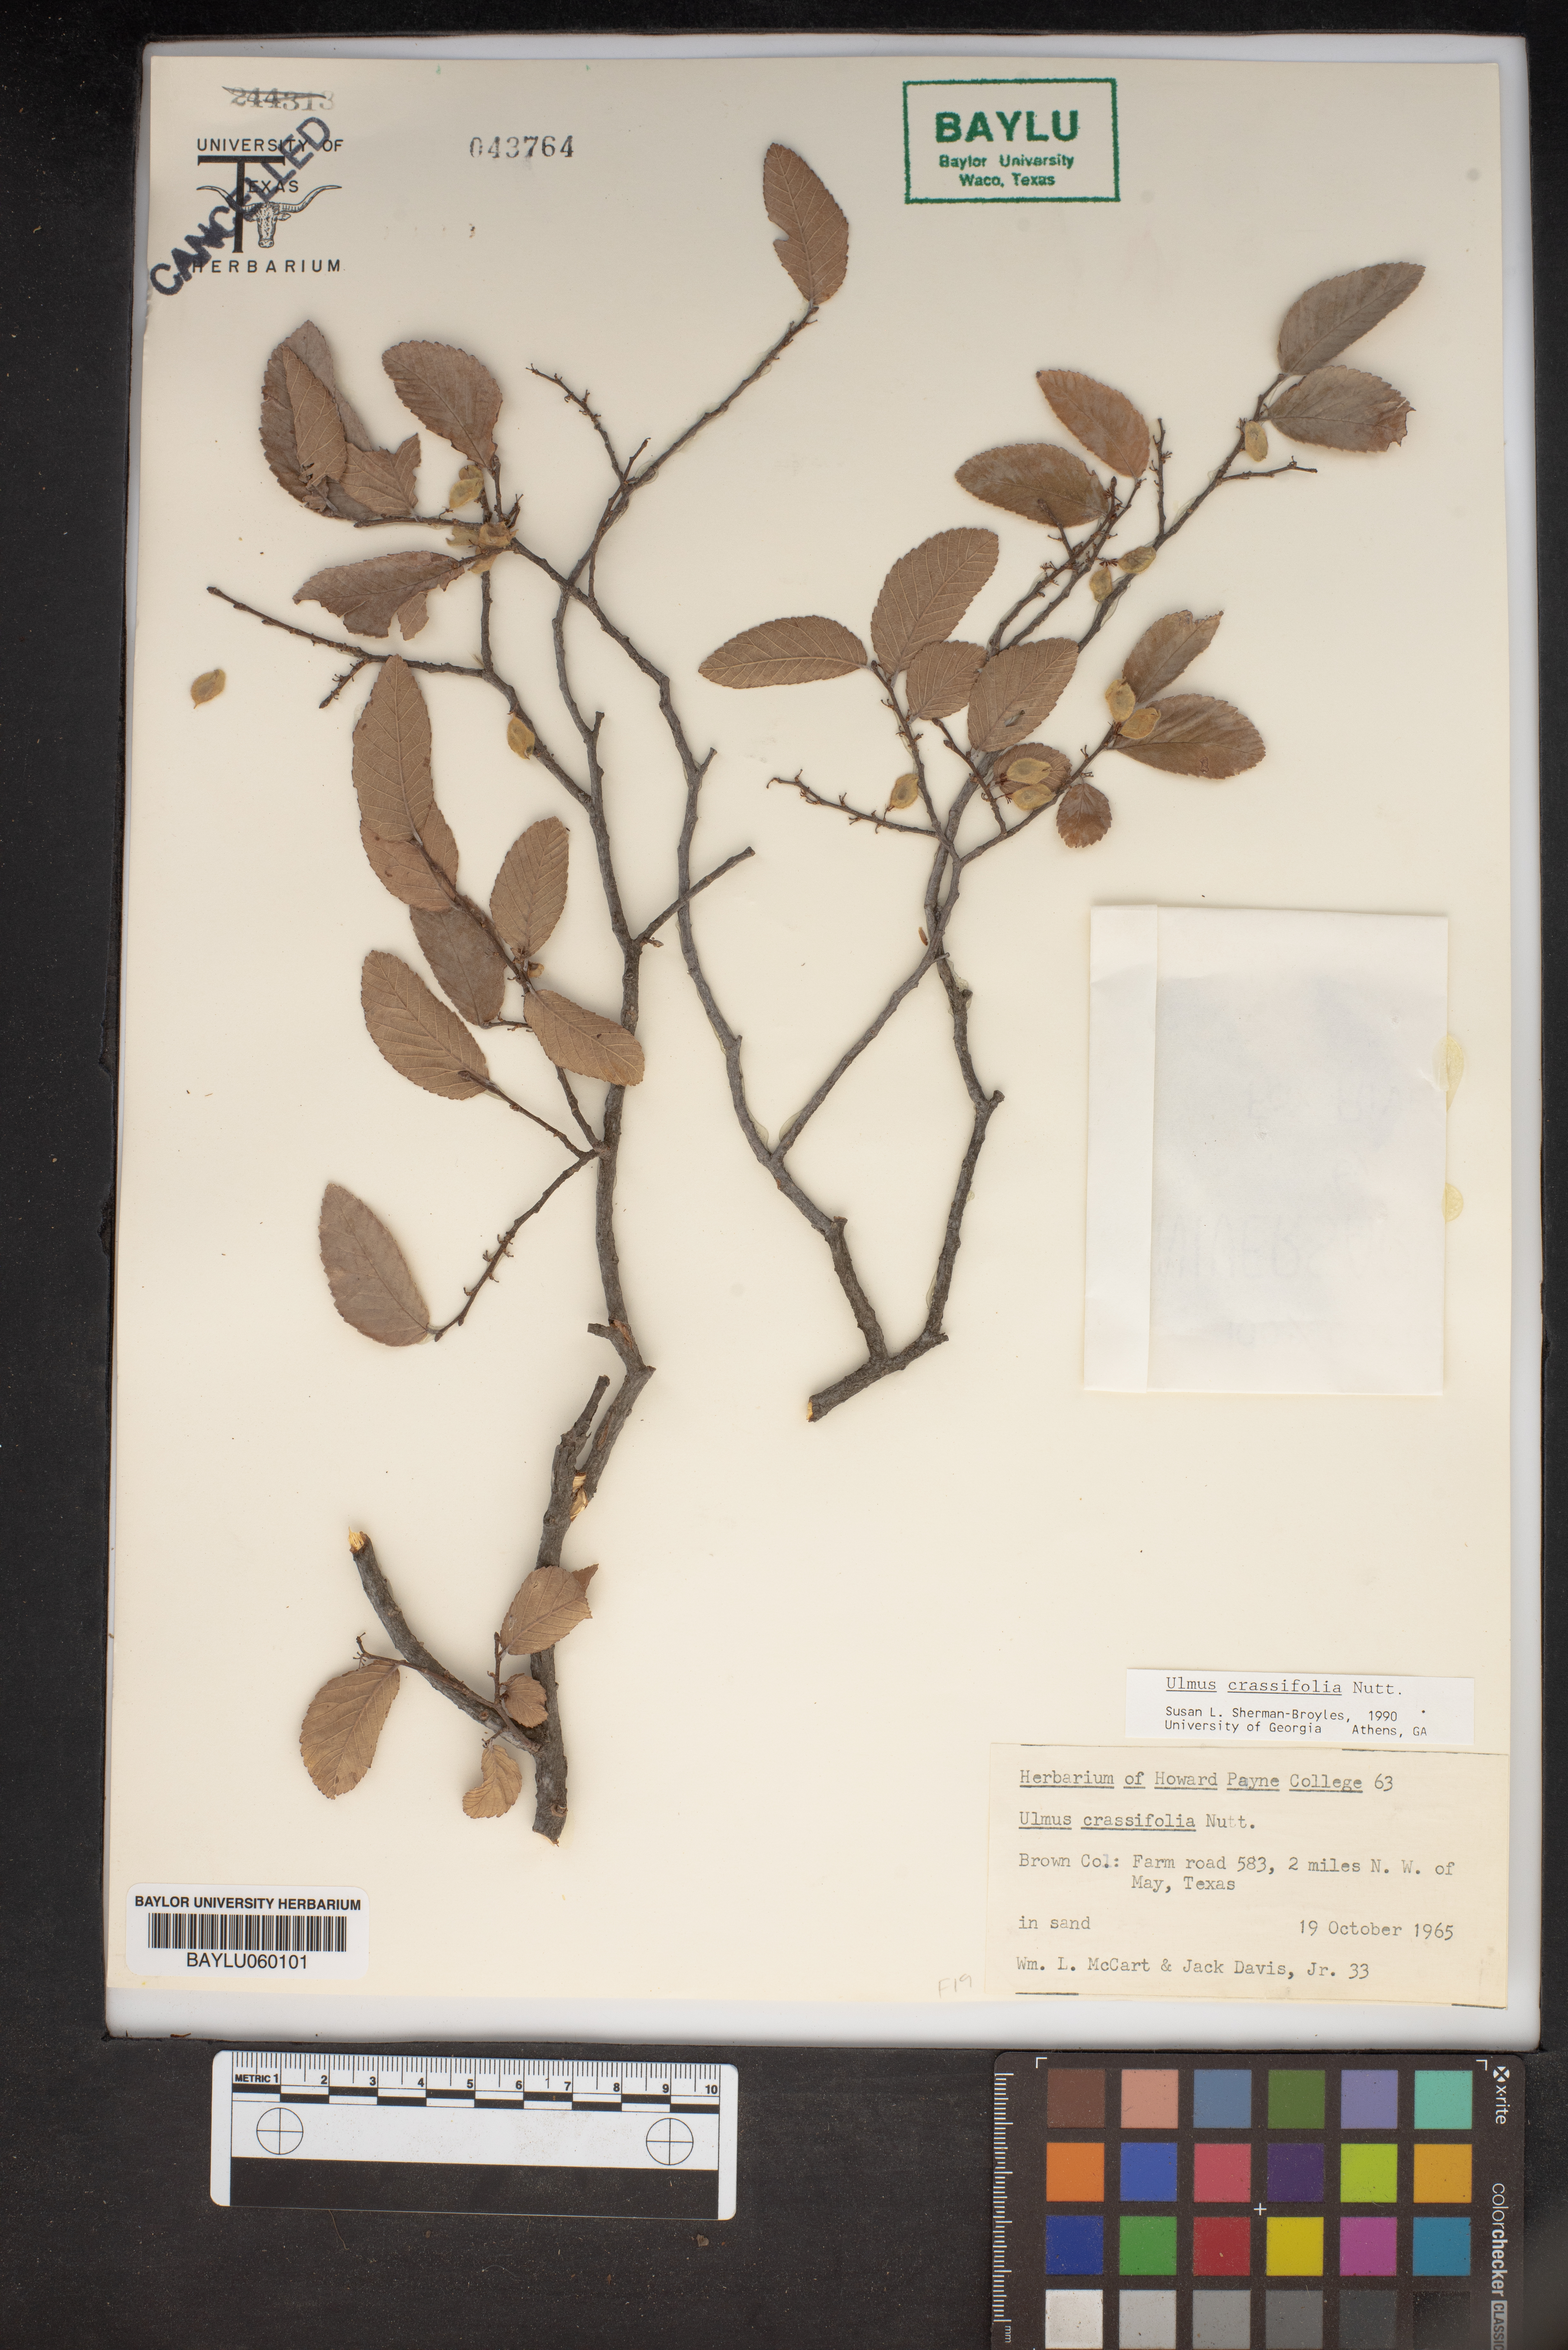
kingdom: Plantae
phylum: Tracheophyta
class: Magnoliopsida
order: Rosales
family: Ulmaceae
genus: Ulmus
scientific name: Ulmus crassifolia
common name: Basket elm
